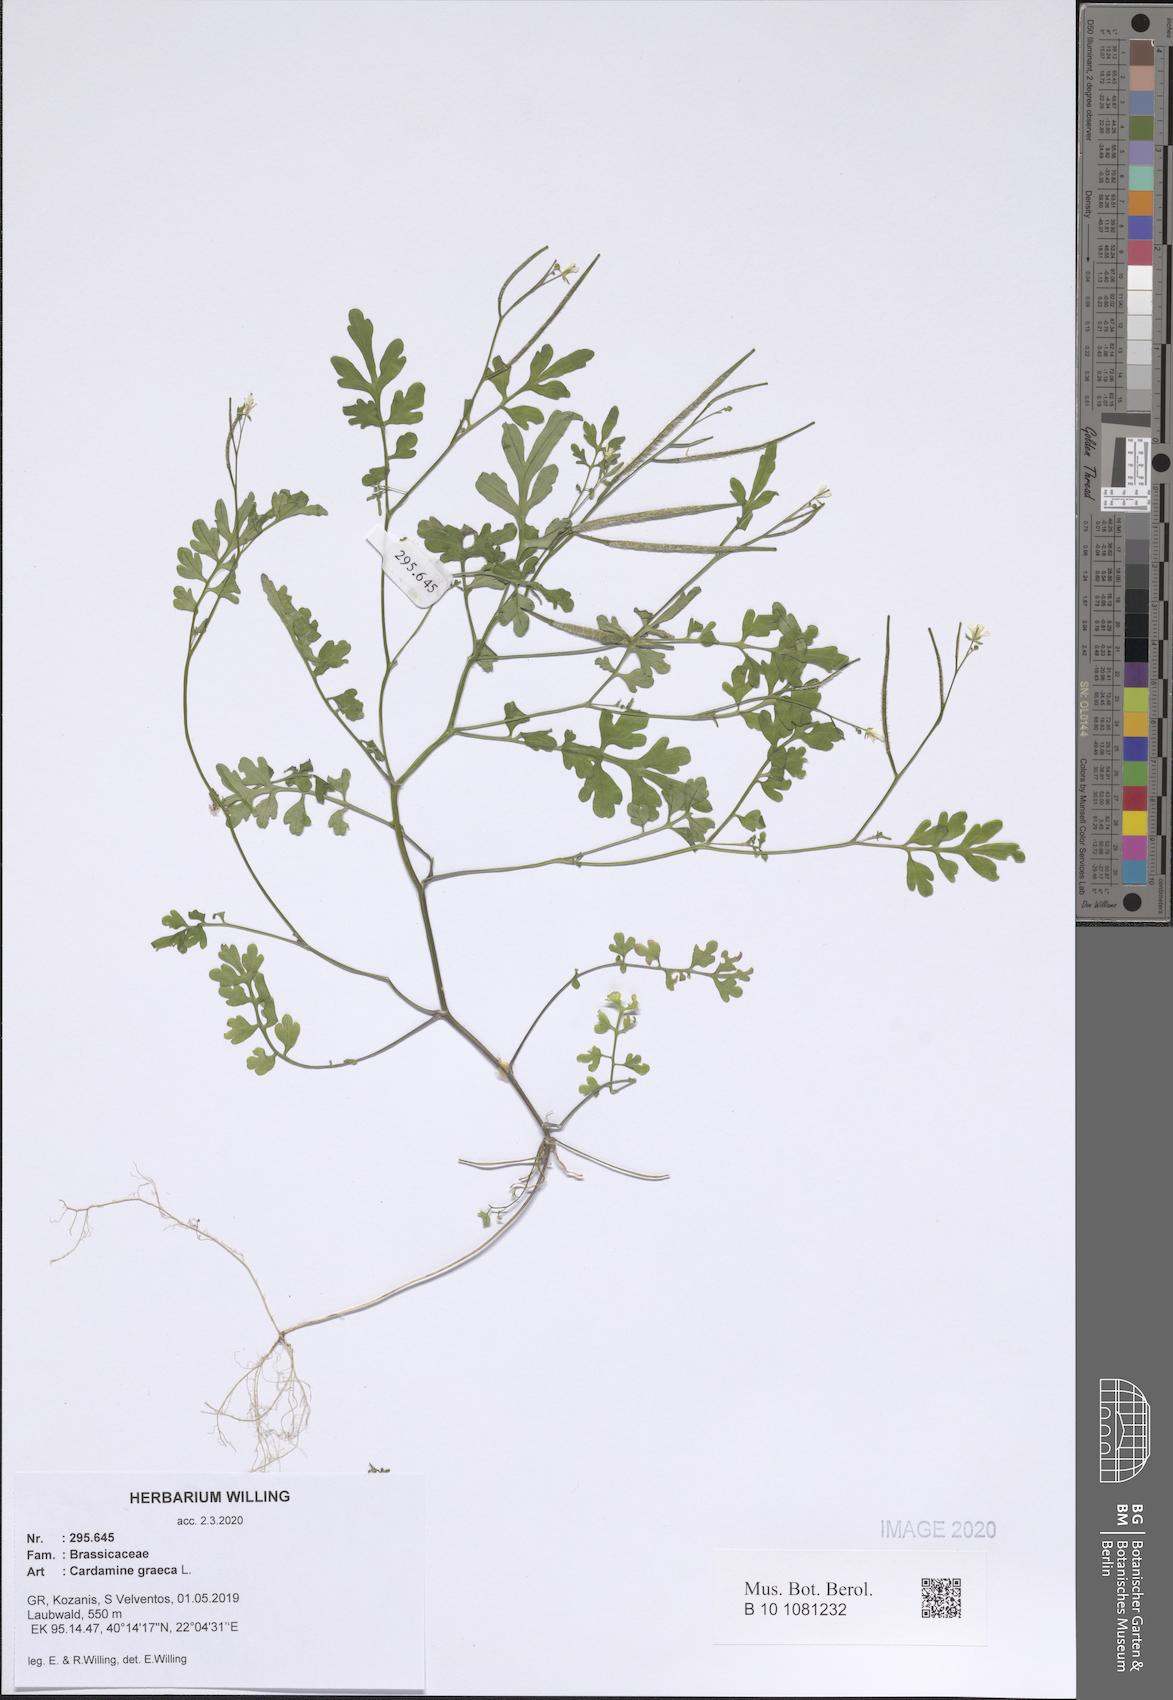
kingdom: Plantae
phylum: Tracheophyta
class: Magnoliopsida
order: Brassicales
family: Brassicaceae
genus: Cardamine
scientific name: Cardamine graeca
